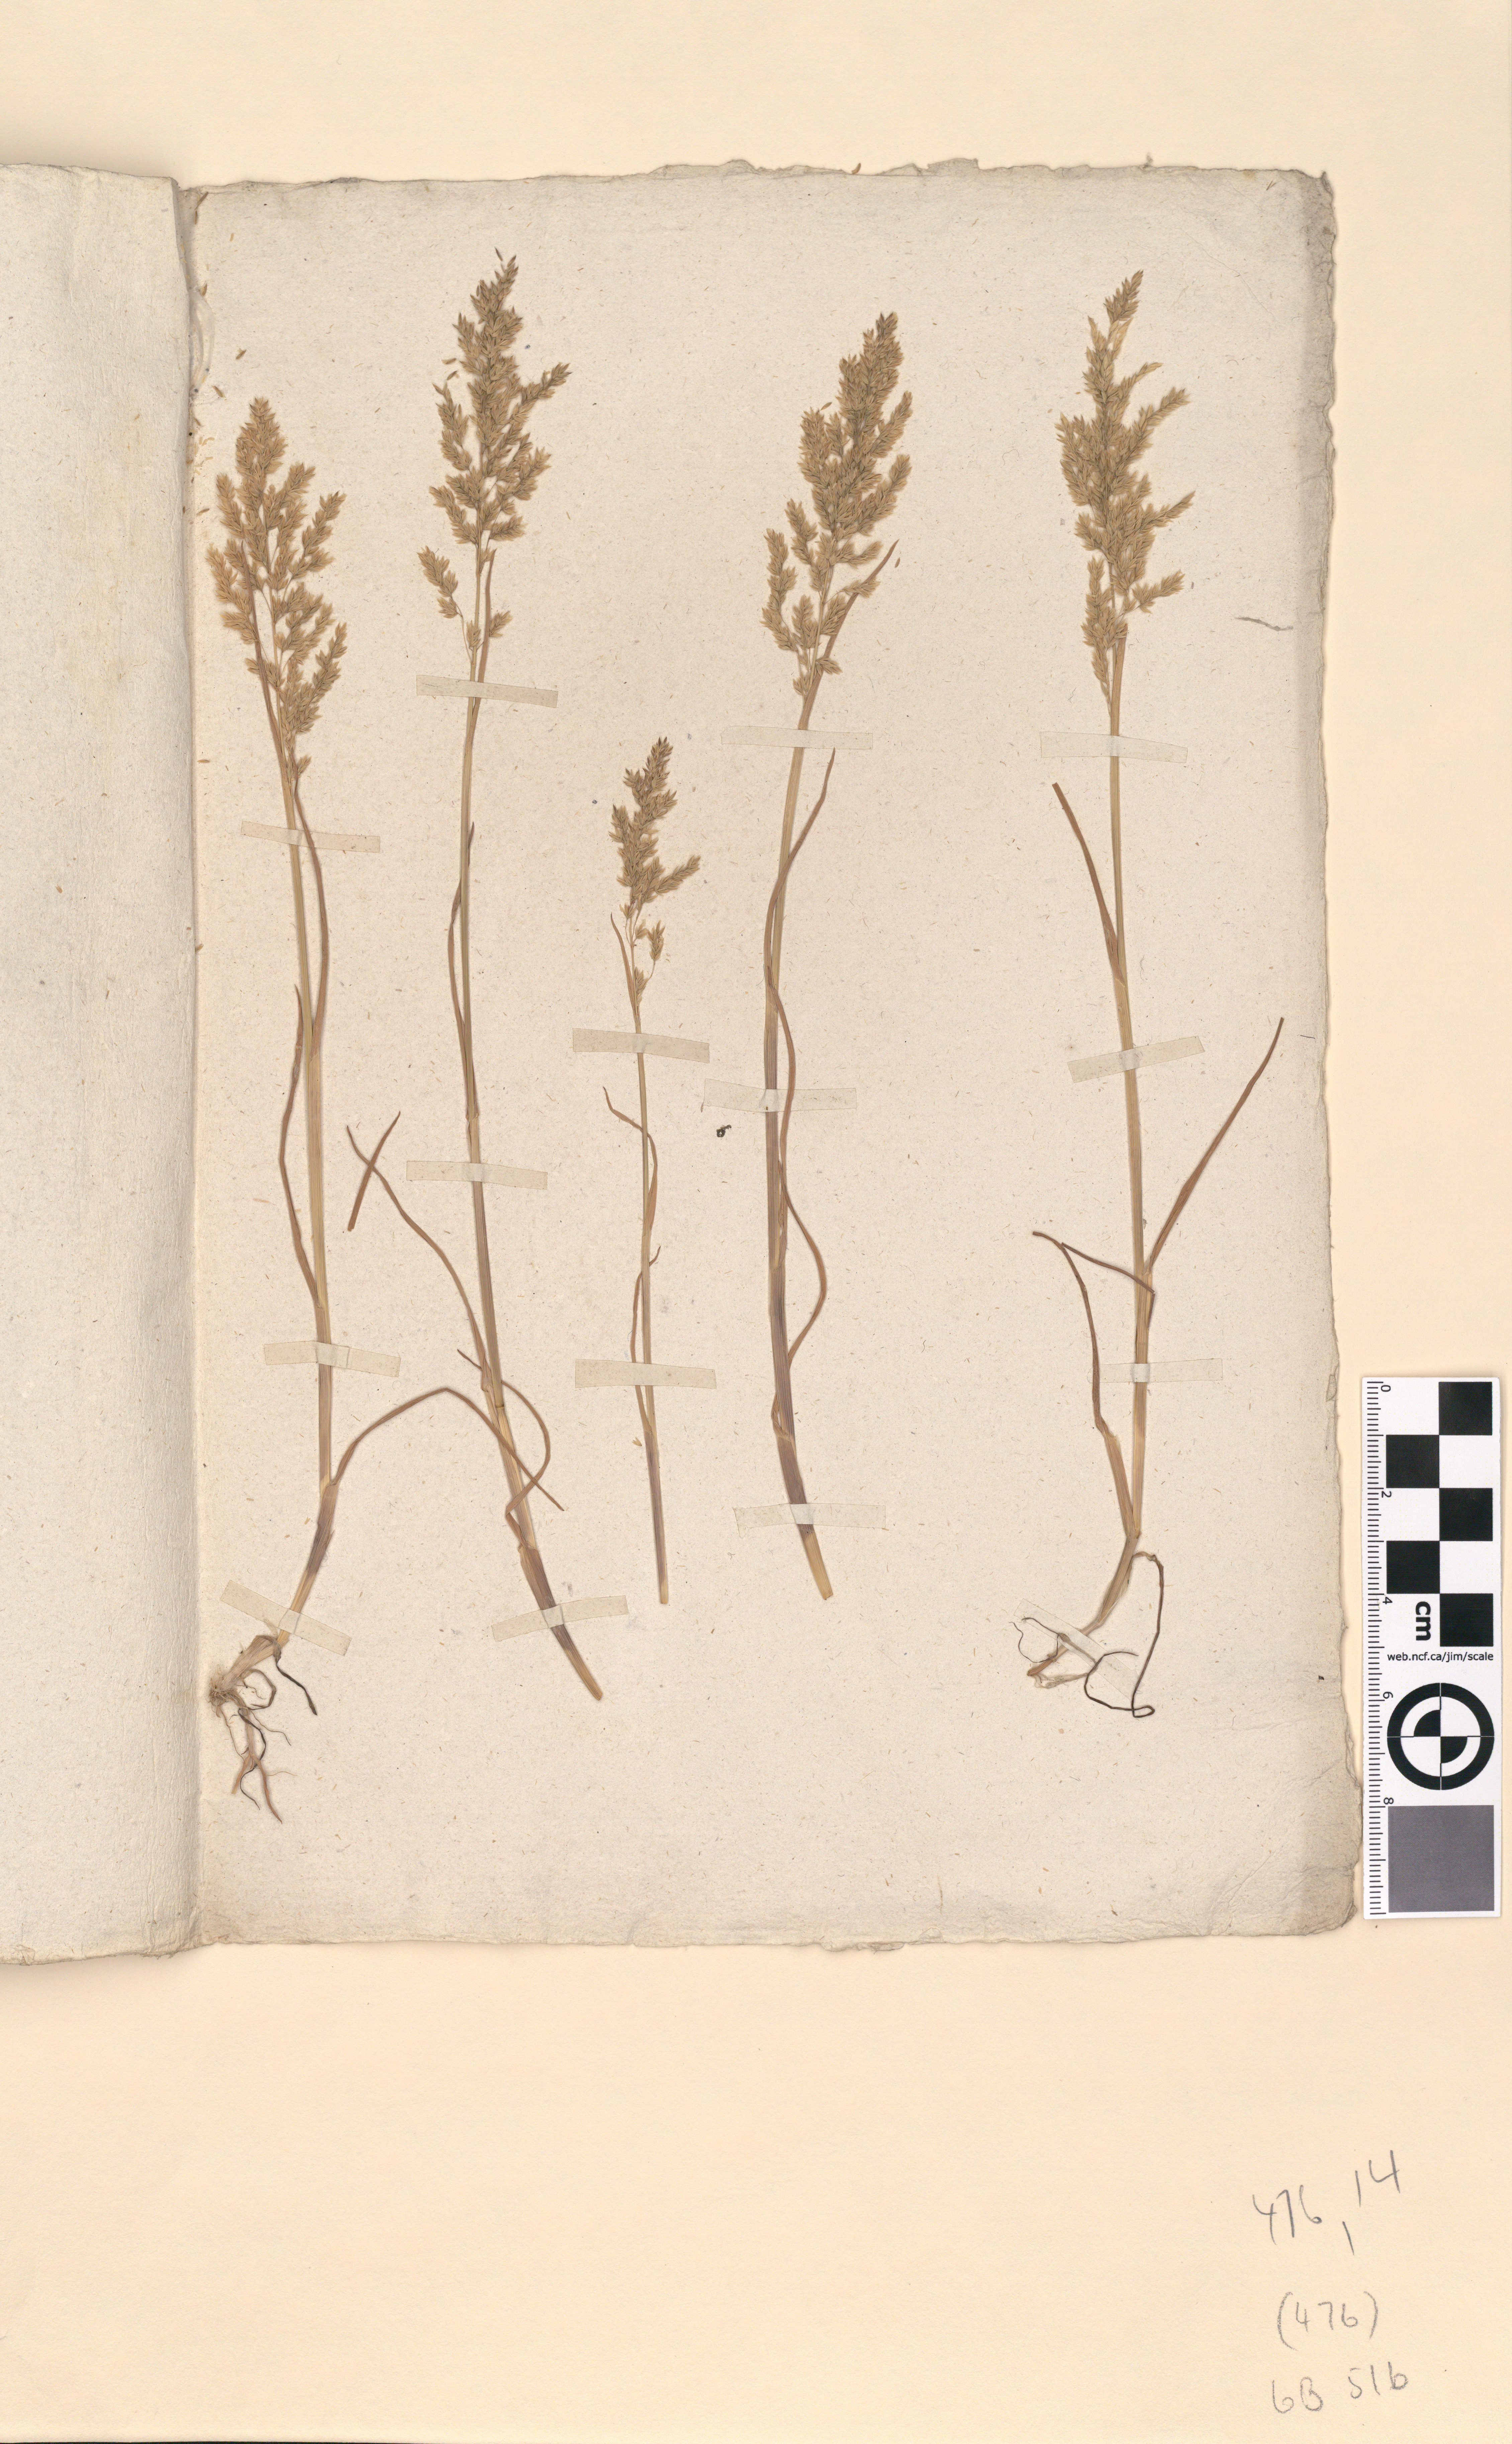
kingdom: Plantae
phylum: Tracheophyta
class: Liliopsida
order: Poales
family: Poaceae
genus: Poa
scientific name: Poa trivialis
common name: Rough bluegrass
